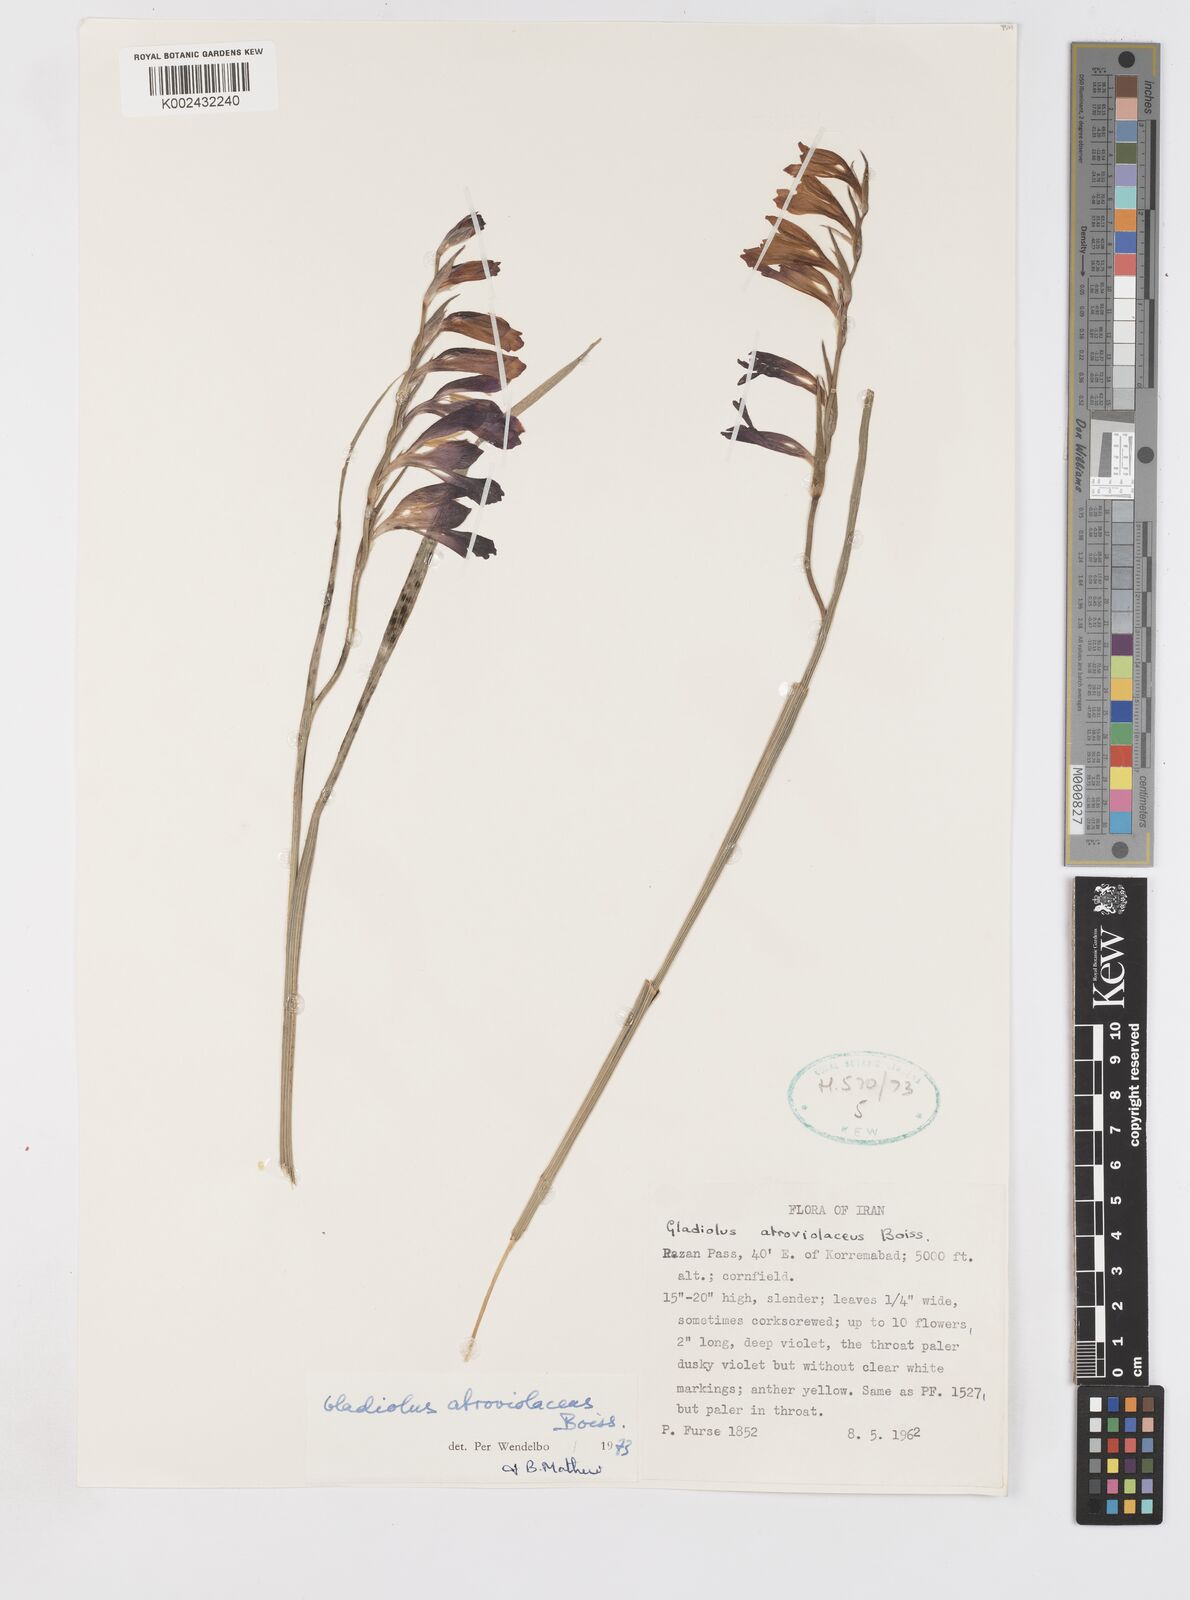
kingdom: Plantae
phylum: Tracheophyta
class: Liliopsida
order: Asparagales
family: Iridaceae
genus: Gladiolus
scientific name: Gladiolus atroviolaceus
